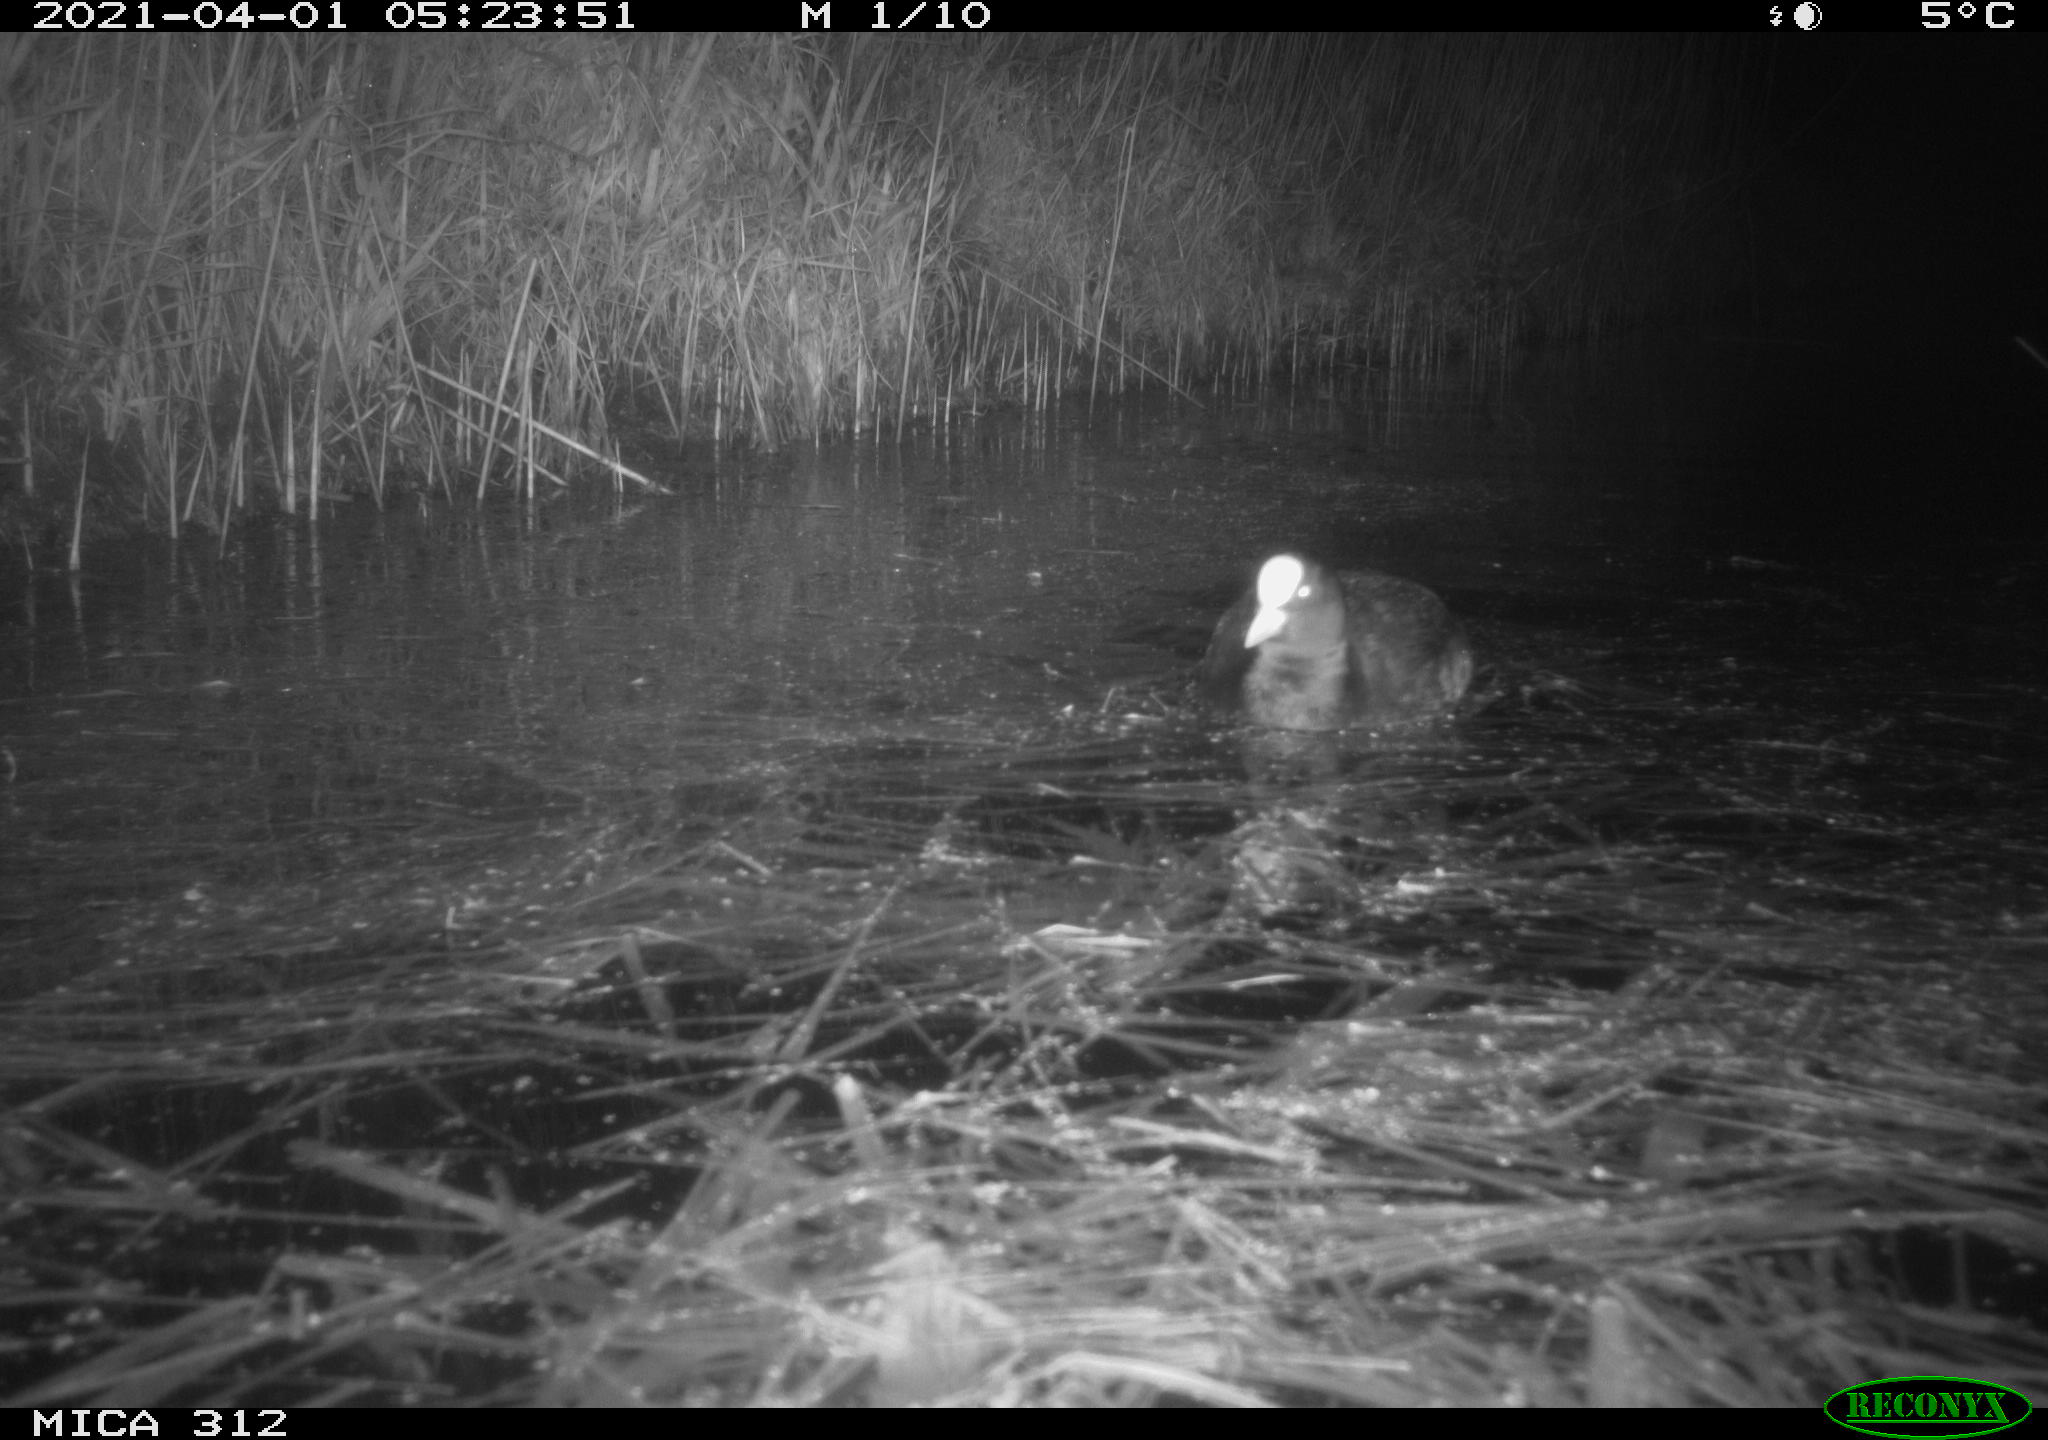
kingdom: Animalia
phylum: Chordata
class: Aves
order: Gruiformes
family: Rallidae
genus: Fulica
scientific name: Fulica atra
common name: Eurasian coot
